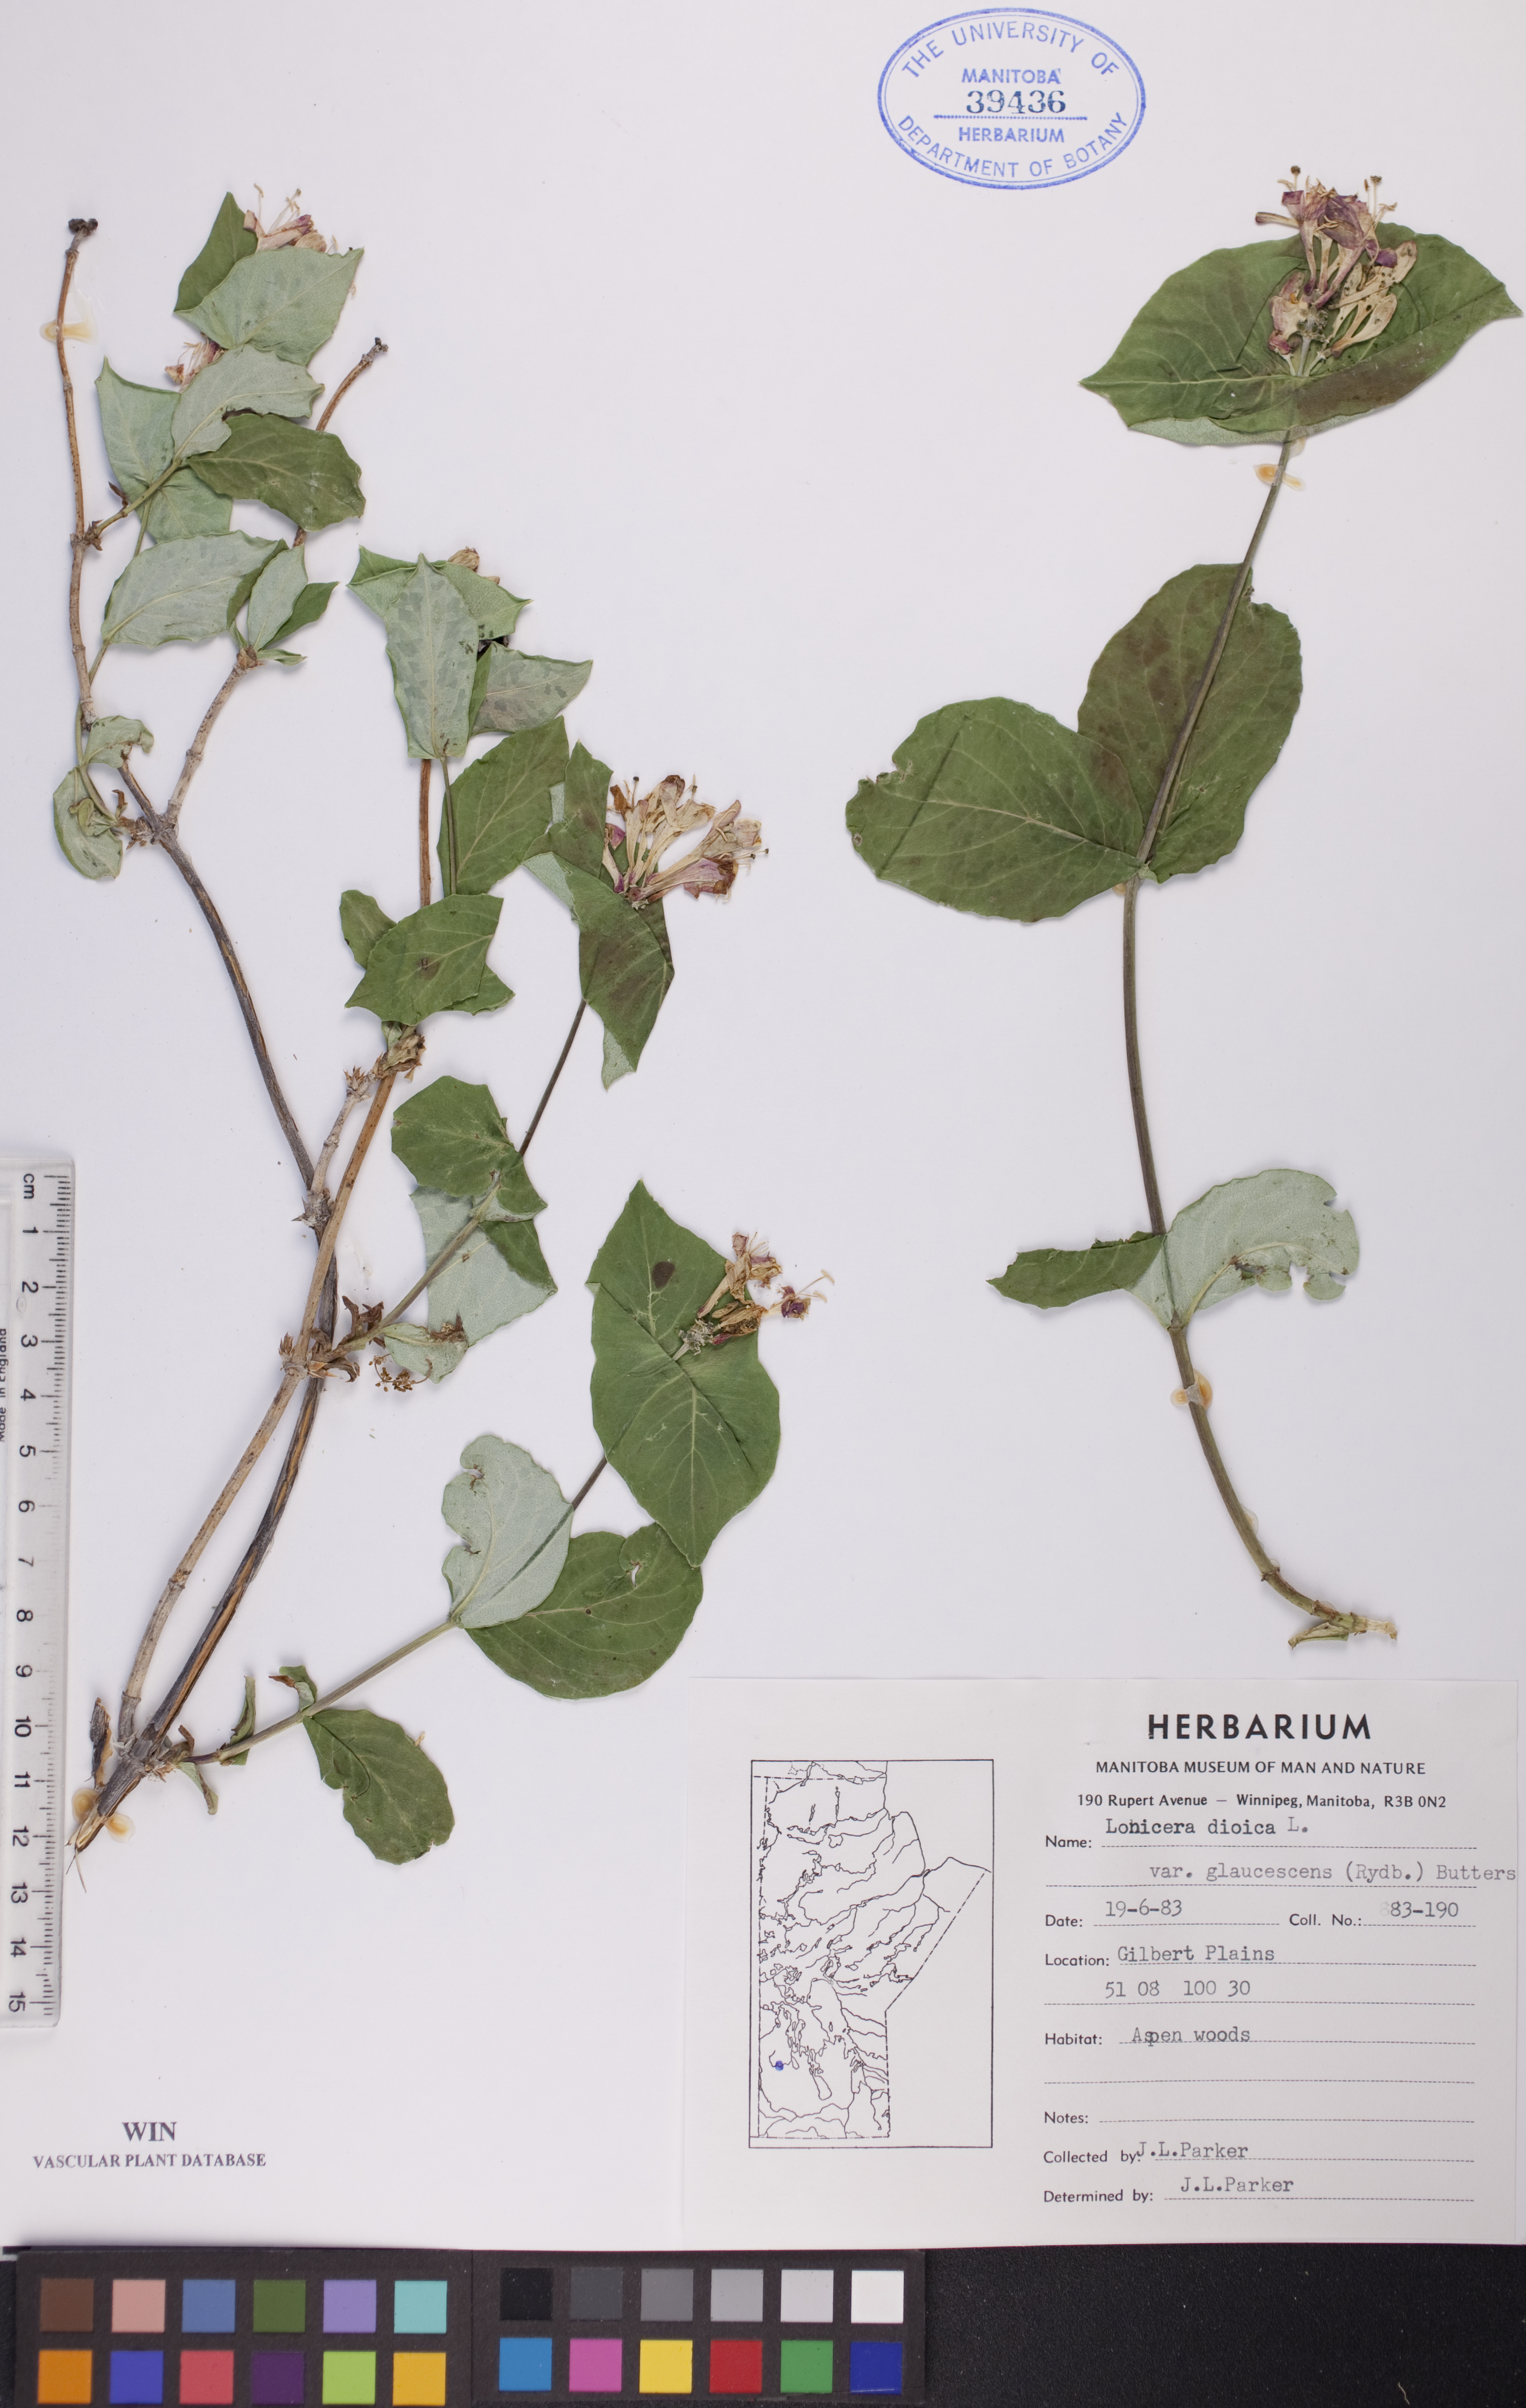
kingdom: Plantae
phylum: Tracheophyta
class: Magnoliopsida
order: Dipsacales
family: Caprifoliaceae
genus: Lonicera
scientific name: Lonicera dioica
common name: Limber honeysuckle
